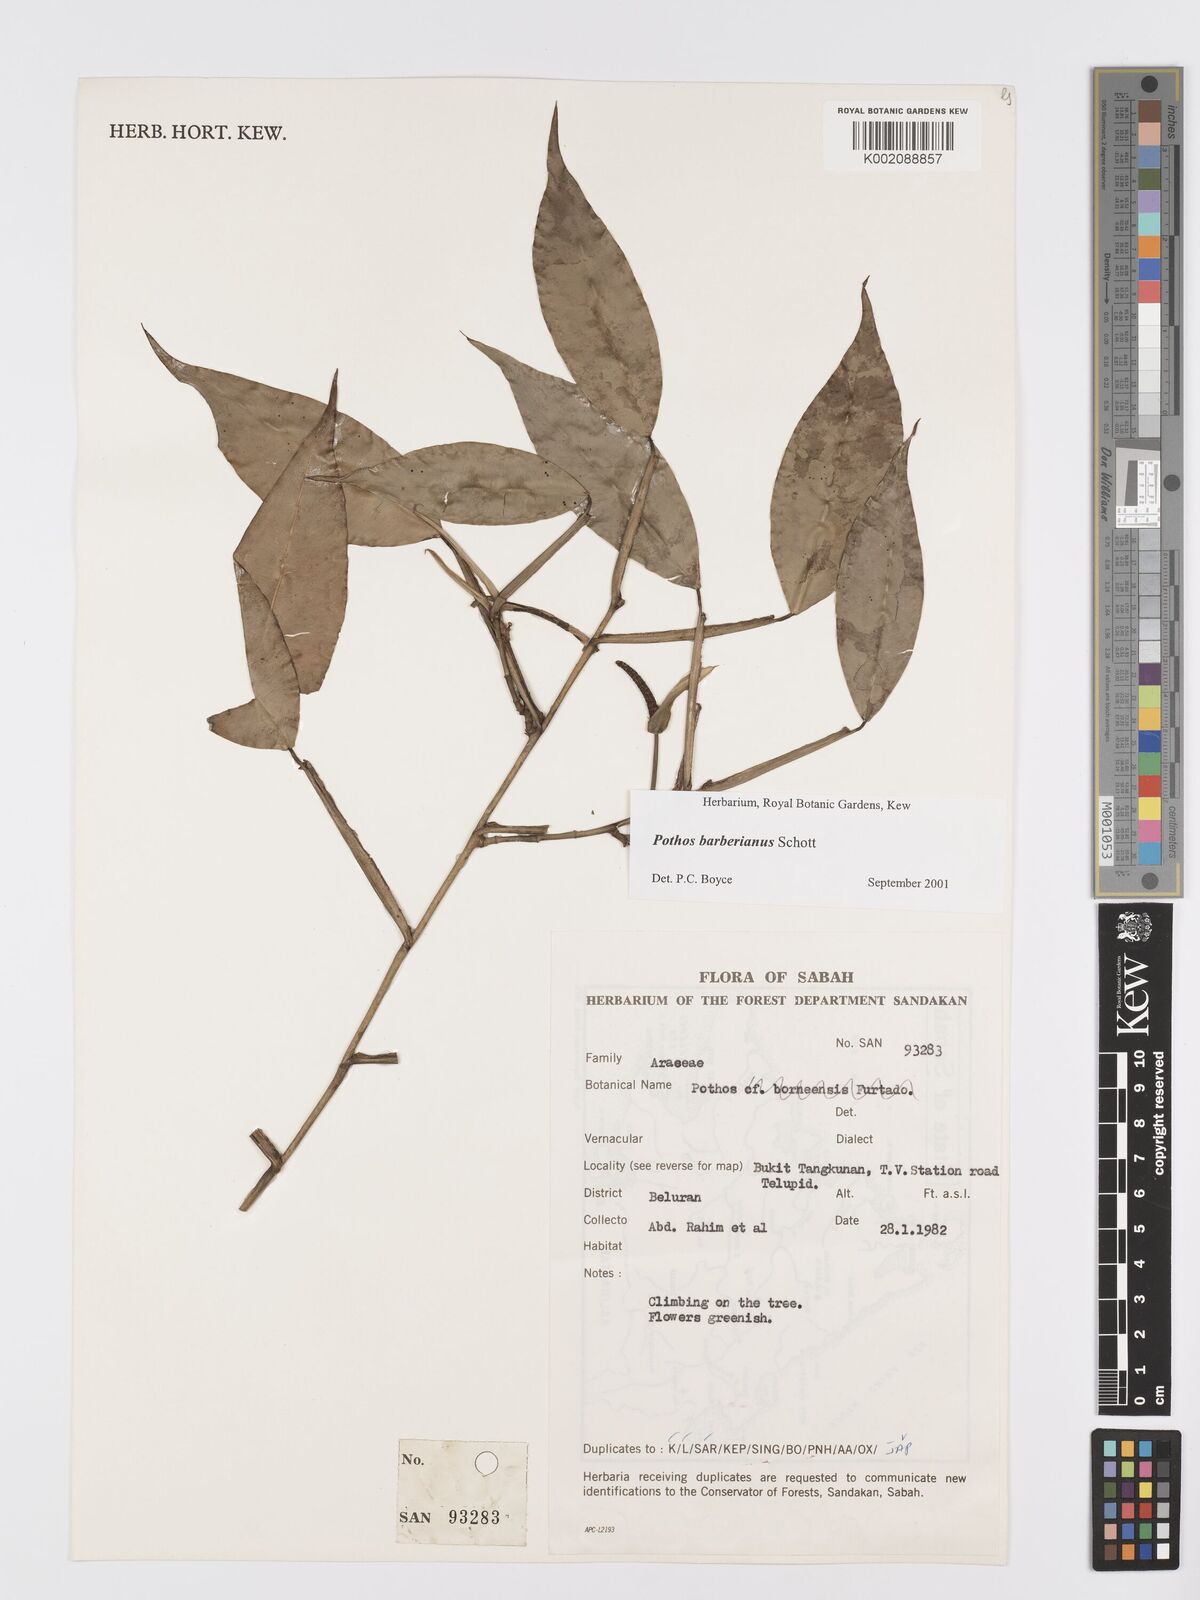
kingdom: Plantae
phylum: Tracheophyta
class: Liliopsida
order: Alismatales
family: Araceae
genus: Pothos
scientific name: Pothos barberianus
